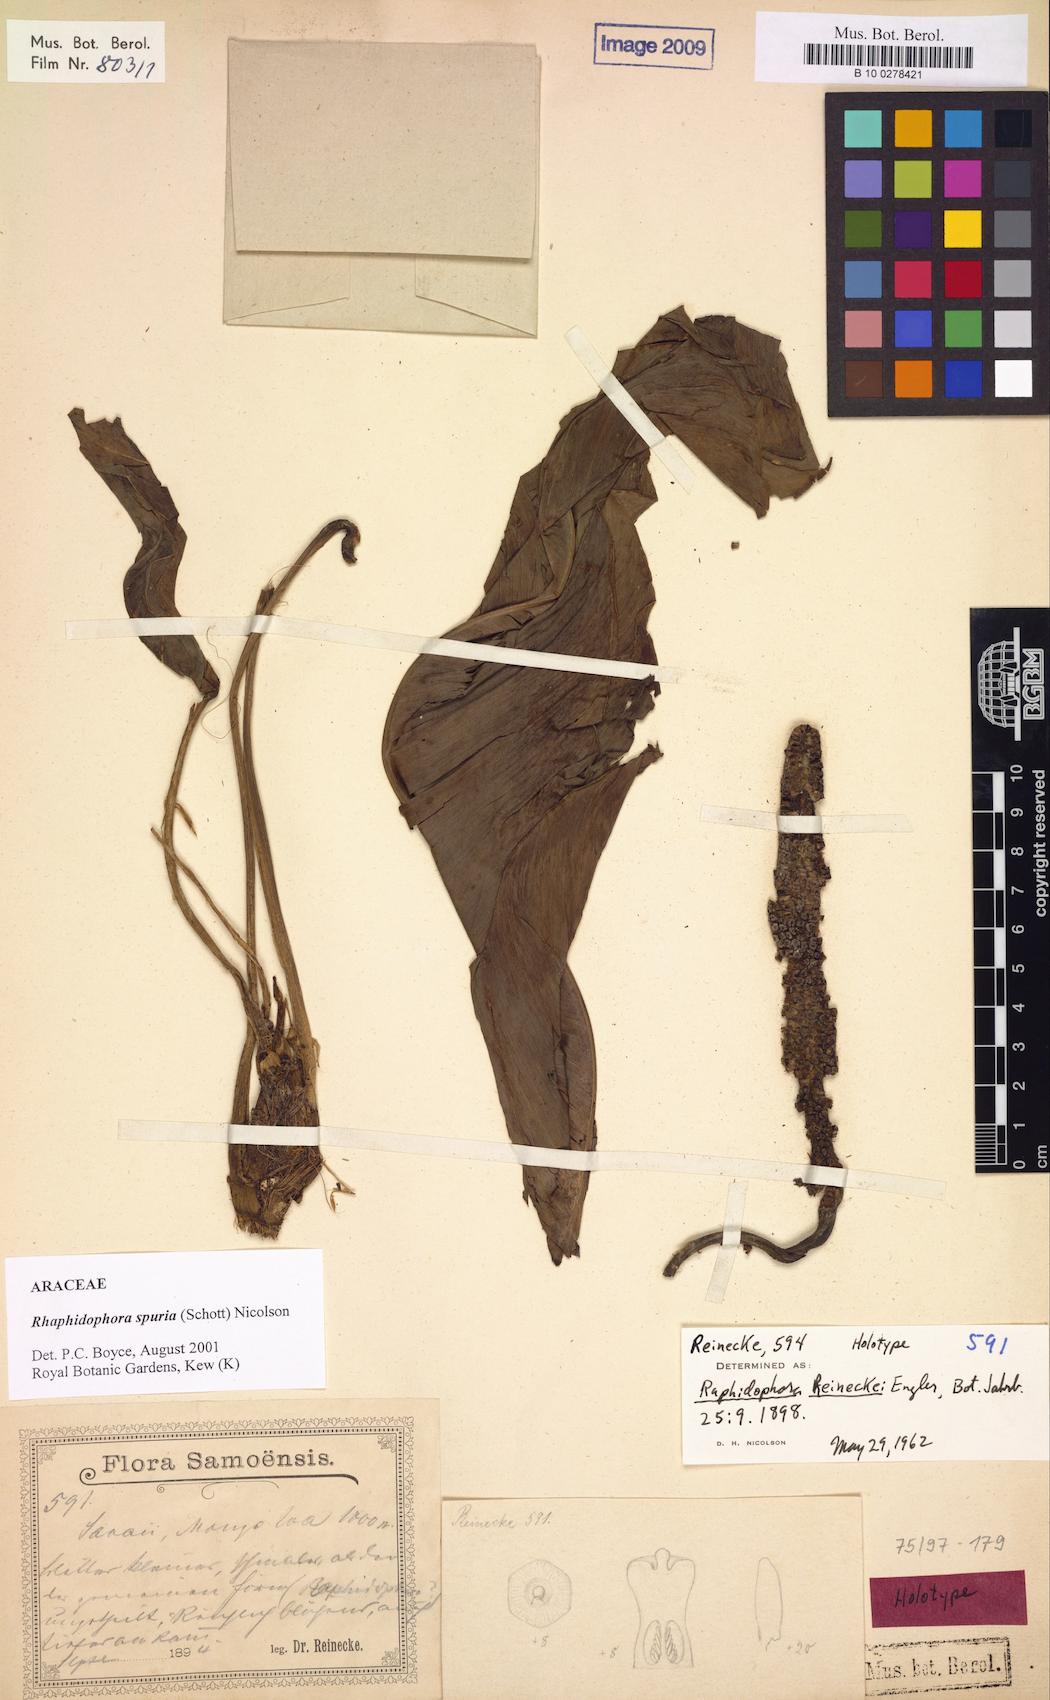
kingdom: Plantae
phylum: Tracheophyta
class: Liliopsida
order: Alismatales
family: Araceae
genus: Rhaphidophora
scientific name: Rhaphidophora spuria
